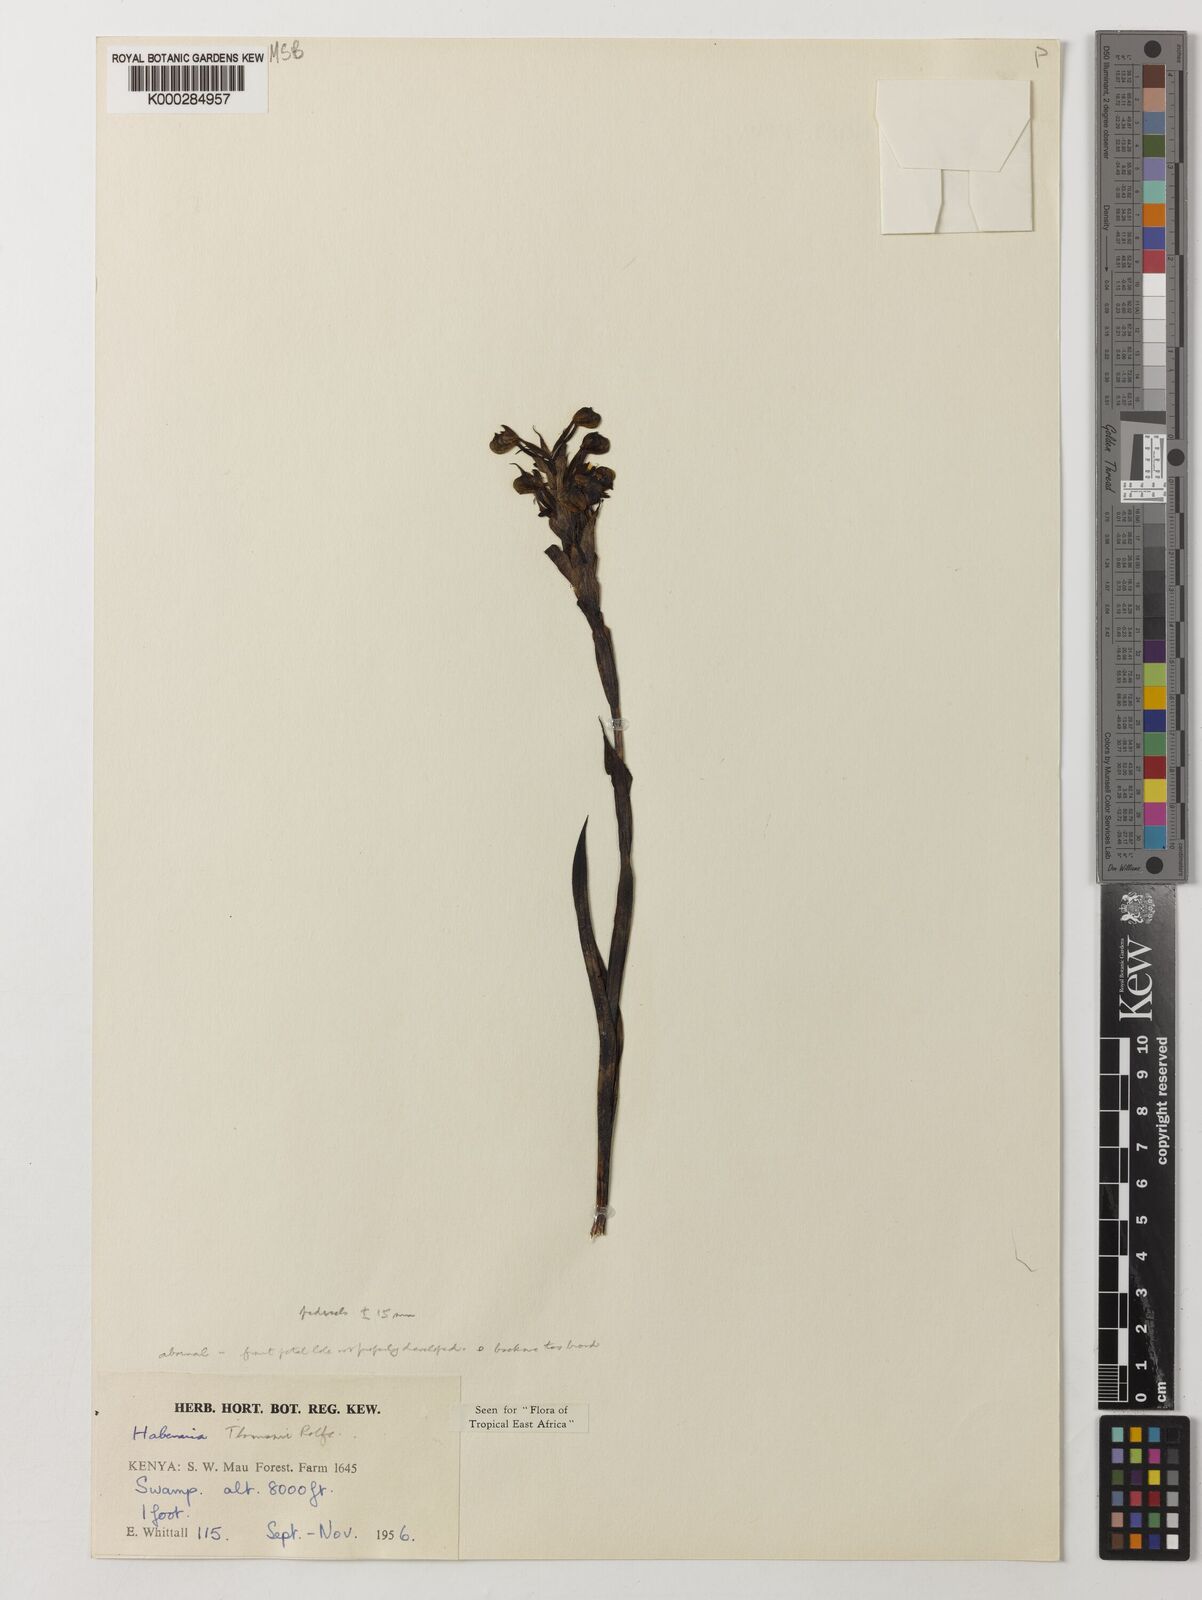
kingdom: Plantae
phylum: Tracheophyta
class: Liliopsida
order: Asparagales
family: Orchidaceae
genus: Habenaria
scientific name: Habenaria thomsonii
